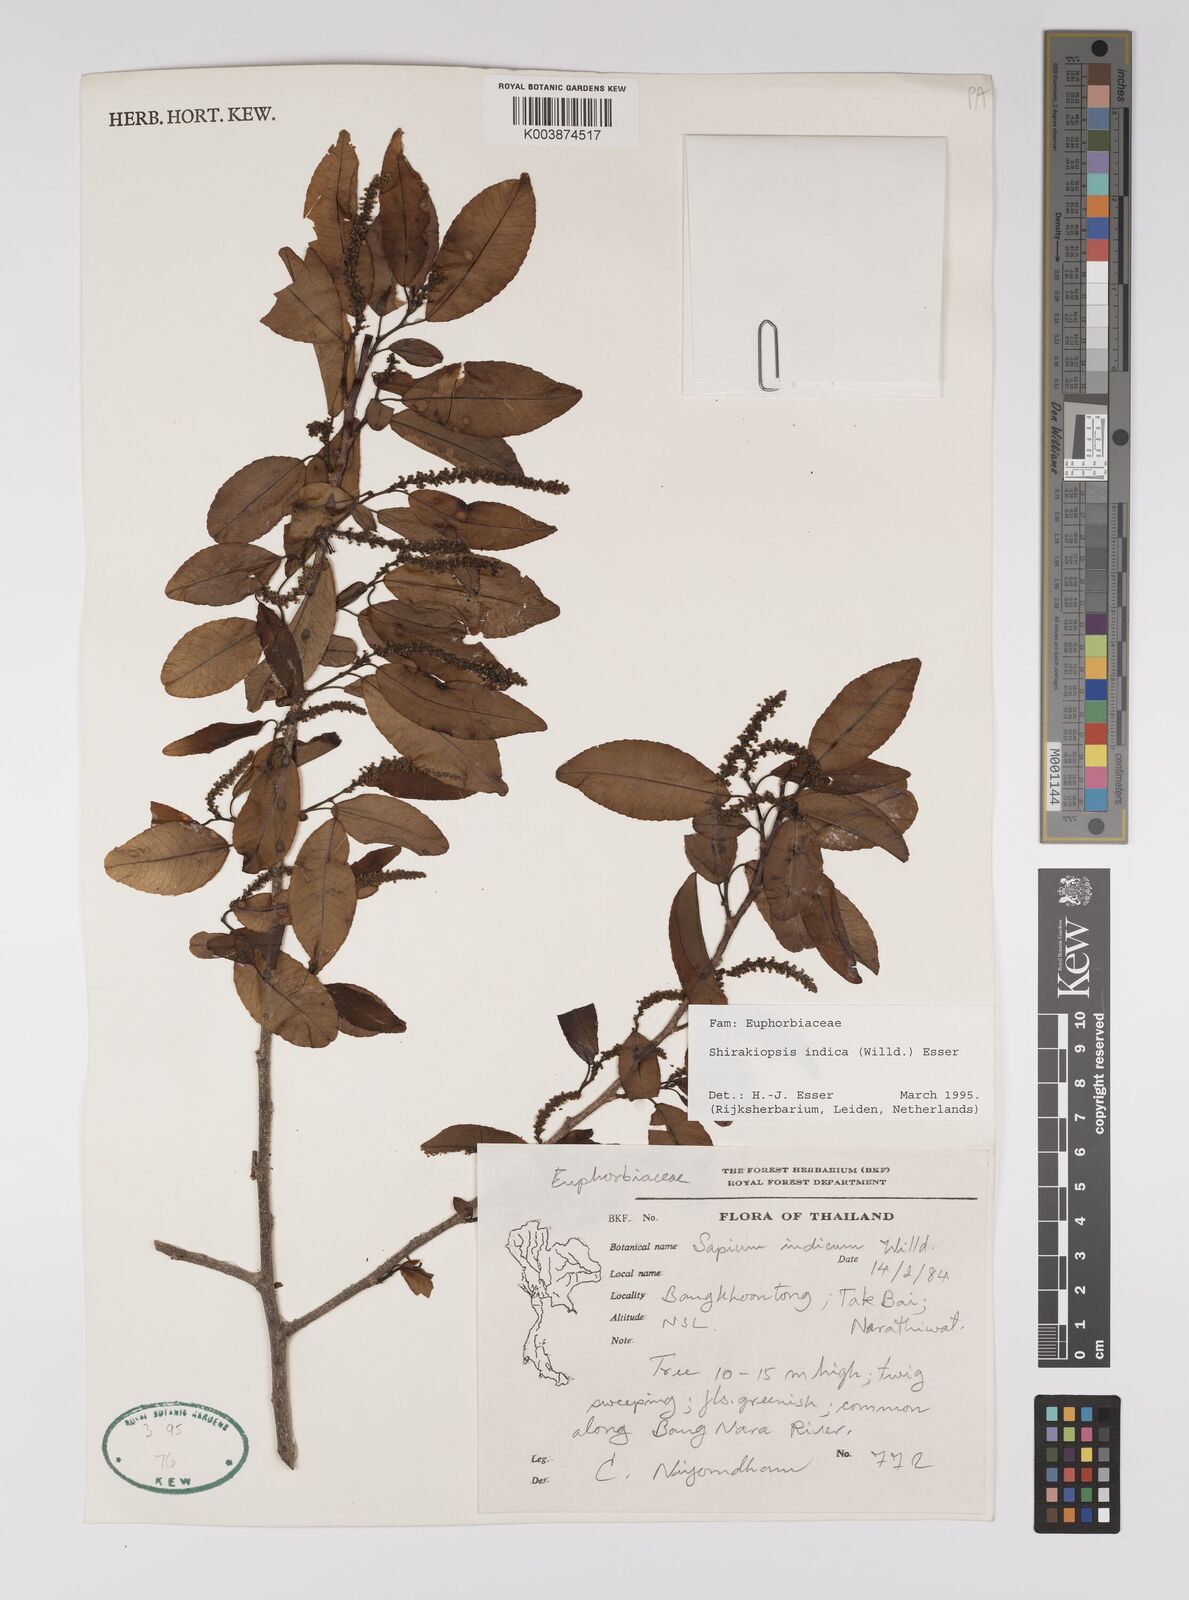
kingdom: Plantae
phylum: Tracheophyta
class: Magnoliopsida
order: Malpighiales
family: Euphorbiaceae
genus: Shirakiopsis
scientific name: Shirakiopsis indica
